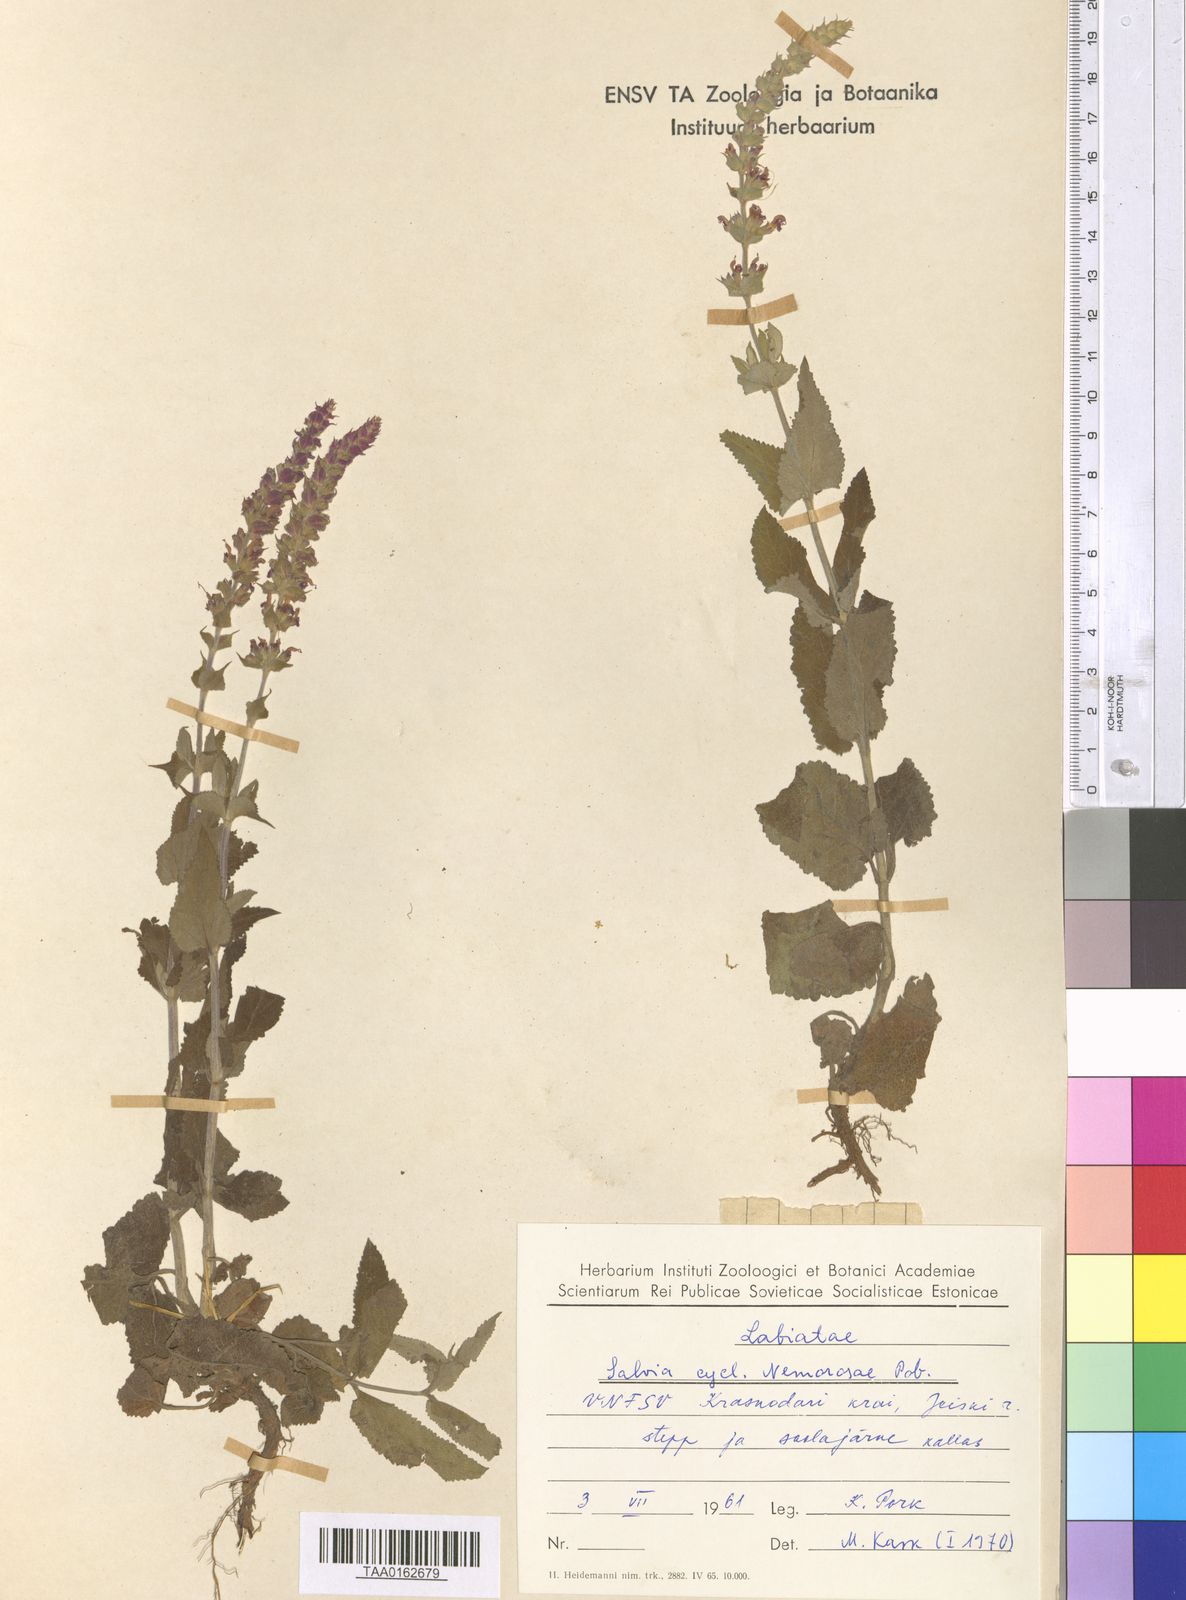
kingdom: Plantae
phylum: Tracheophyta
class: Magnoliopsida
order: Lamiales
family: Lamiaceae
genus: Salvia
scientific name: Salvia nemorosa
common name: Balkan clary
